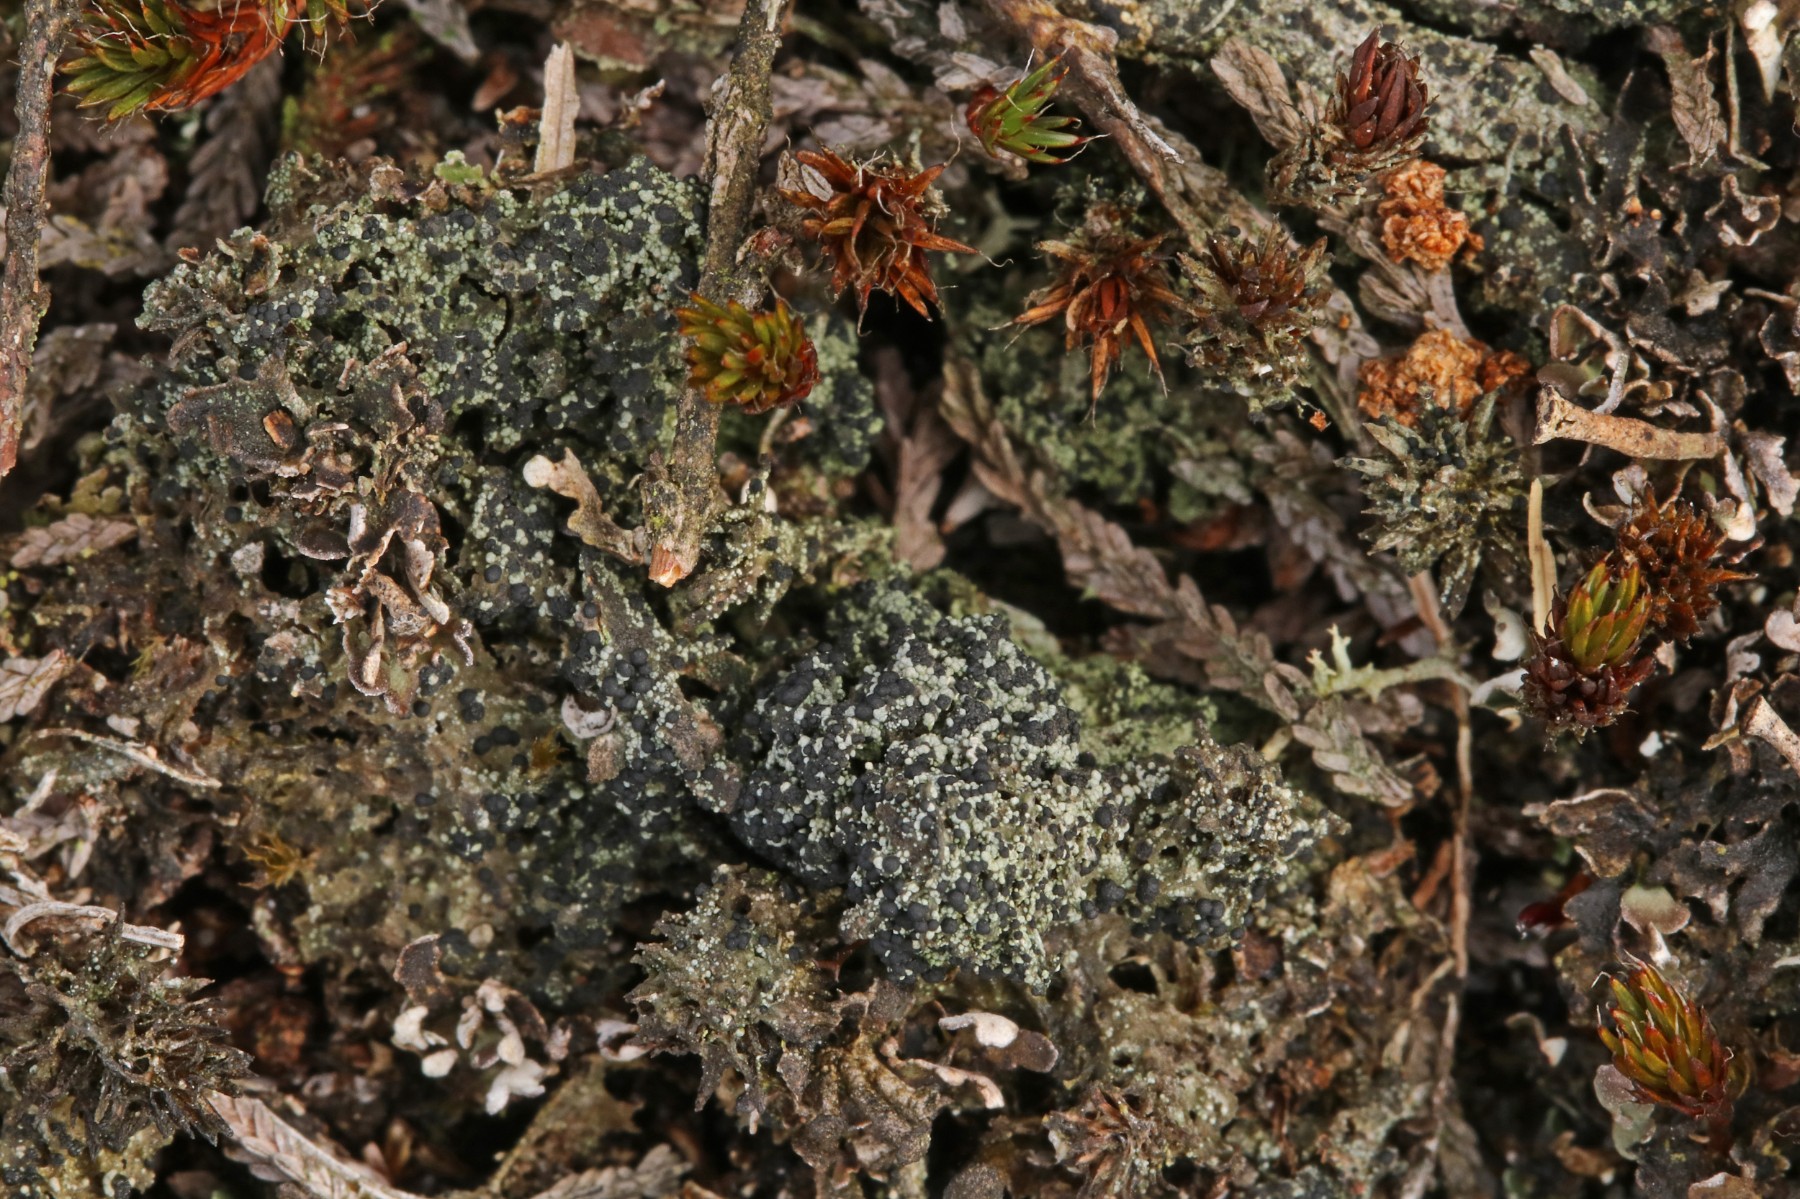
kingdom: Fungi
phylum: Ascomycota
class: Lecanoromycetes
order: Lecanorales
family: Byssolomataceae
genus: Micarea
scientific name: Micarea lignaria
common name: tørve-knaplav
